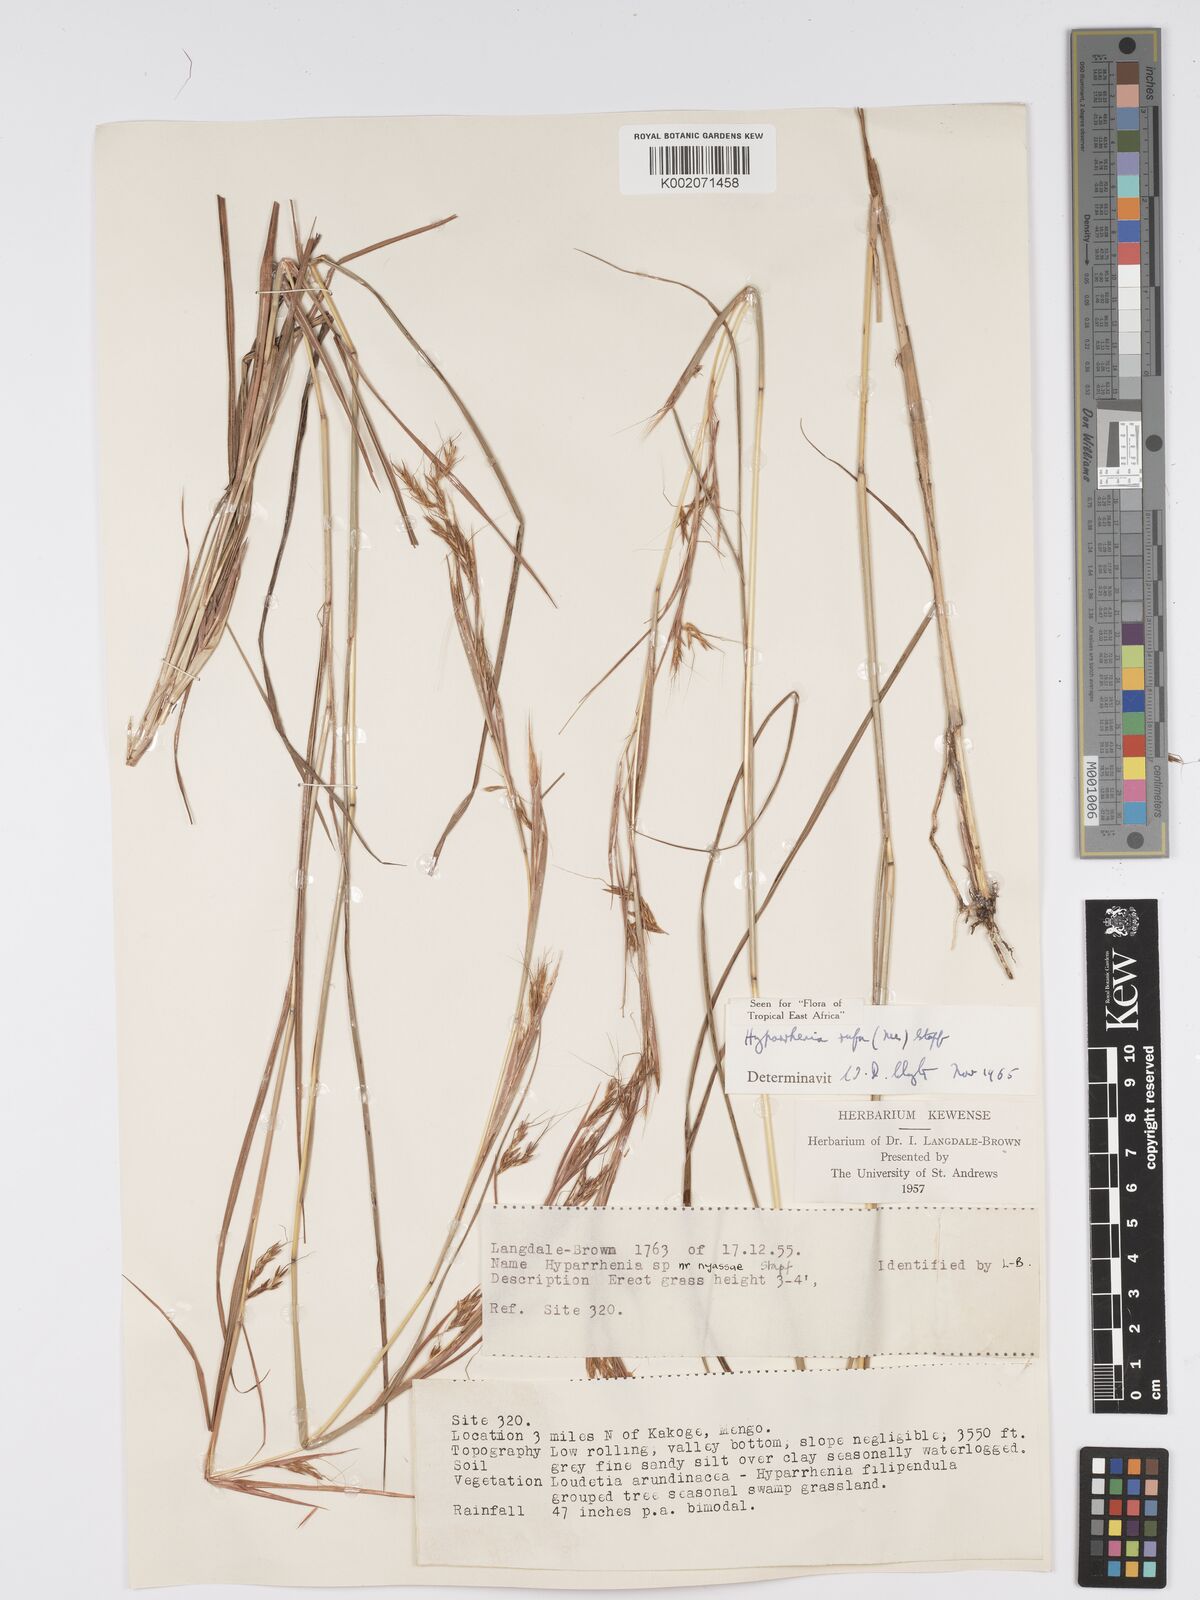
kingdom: Plantae
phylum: Tracheophyta
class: Liliopsida
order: Poales
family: Poaceae
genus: Hyparrhenia
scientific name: Hyparrhenia rufa
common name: Jaraguagrass
